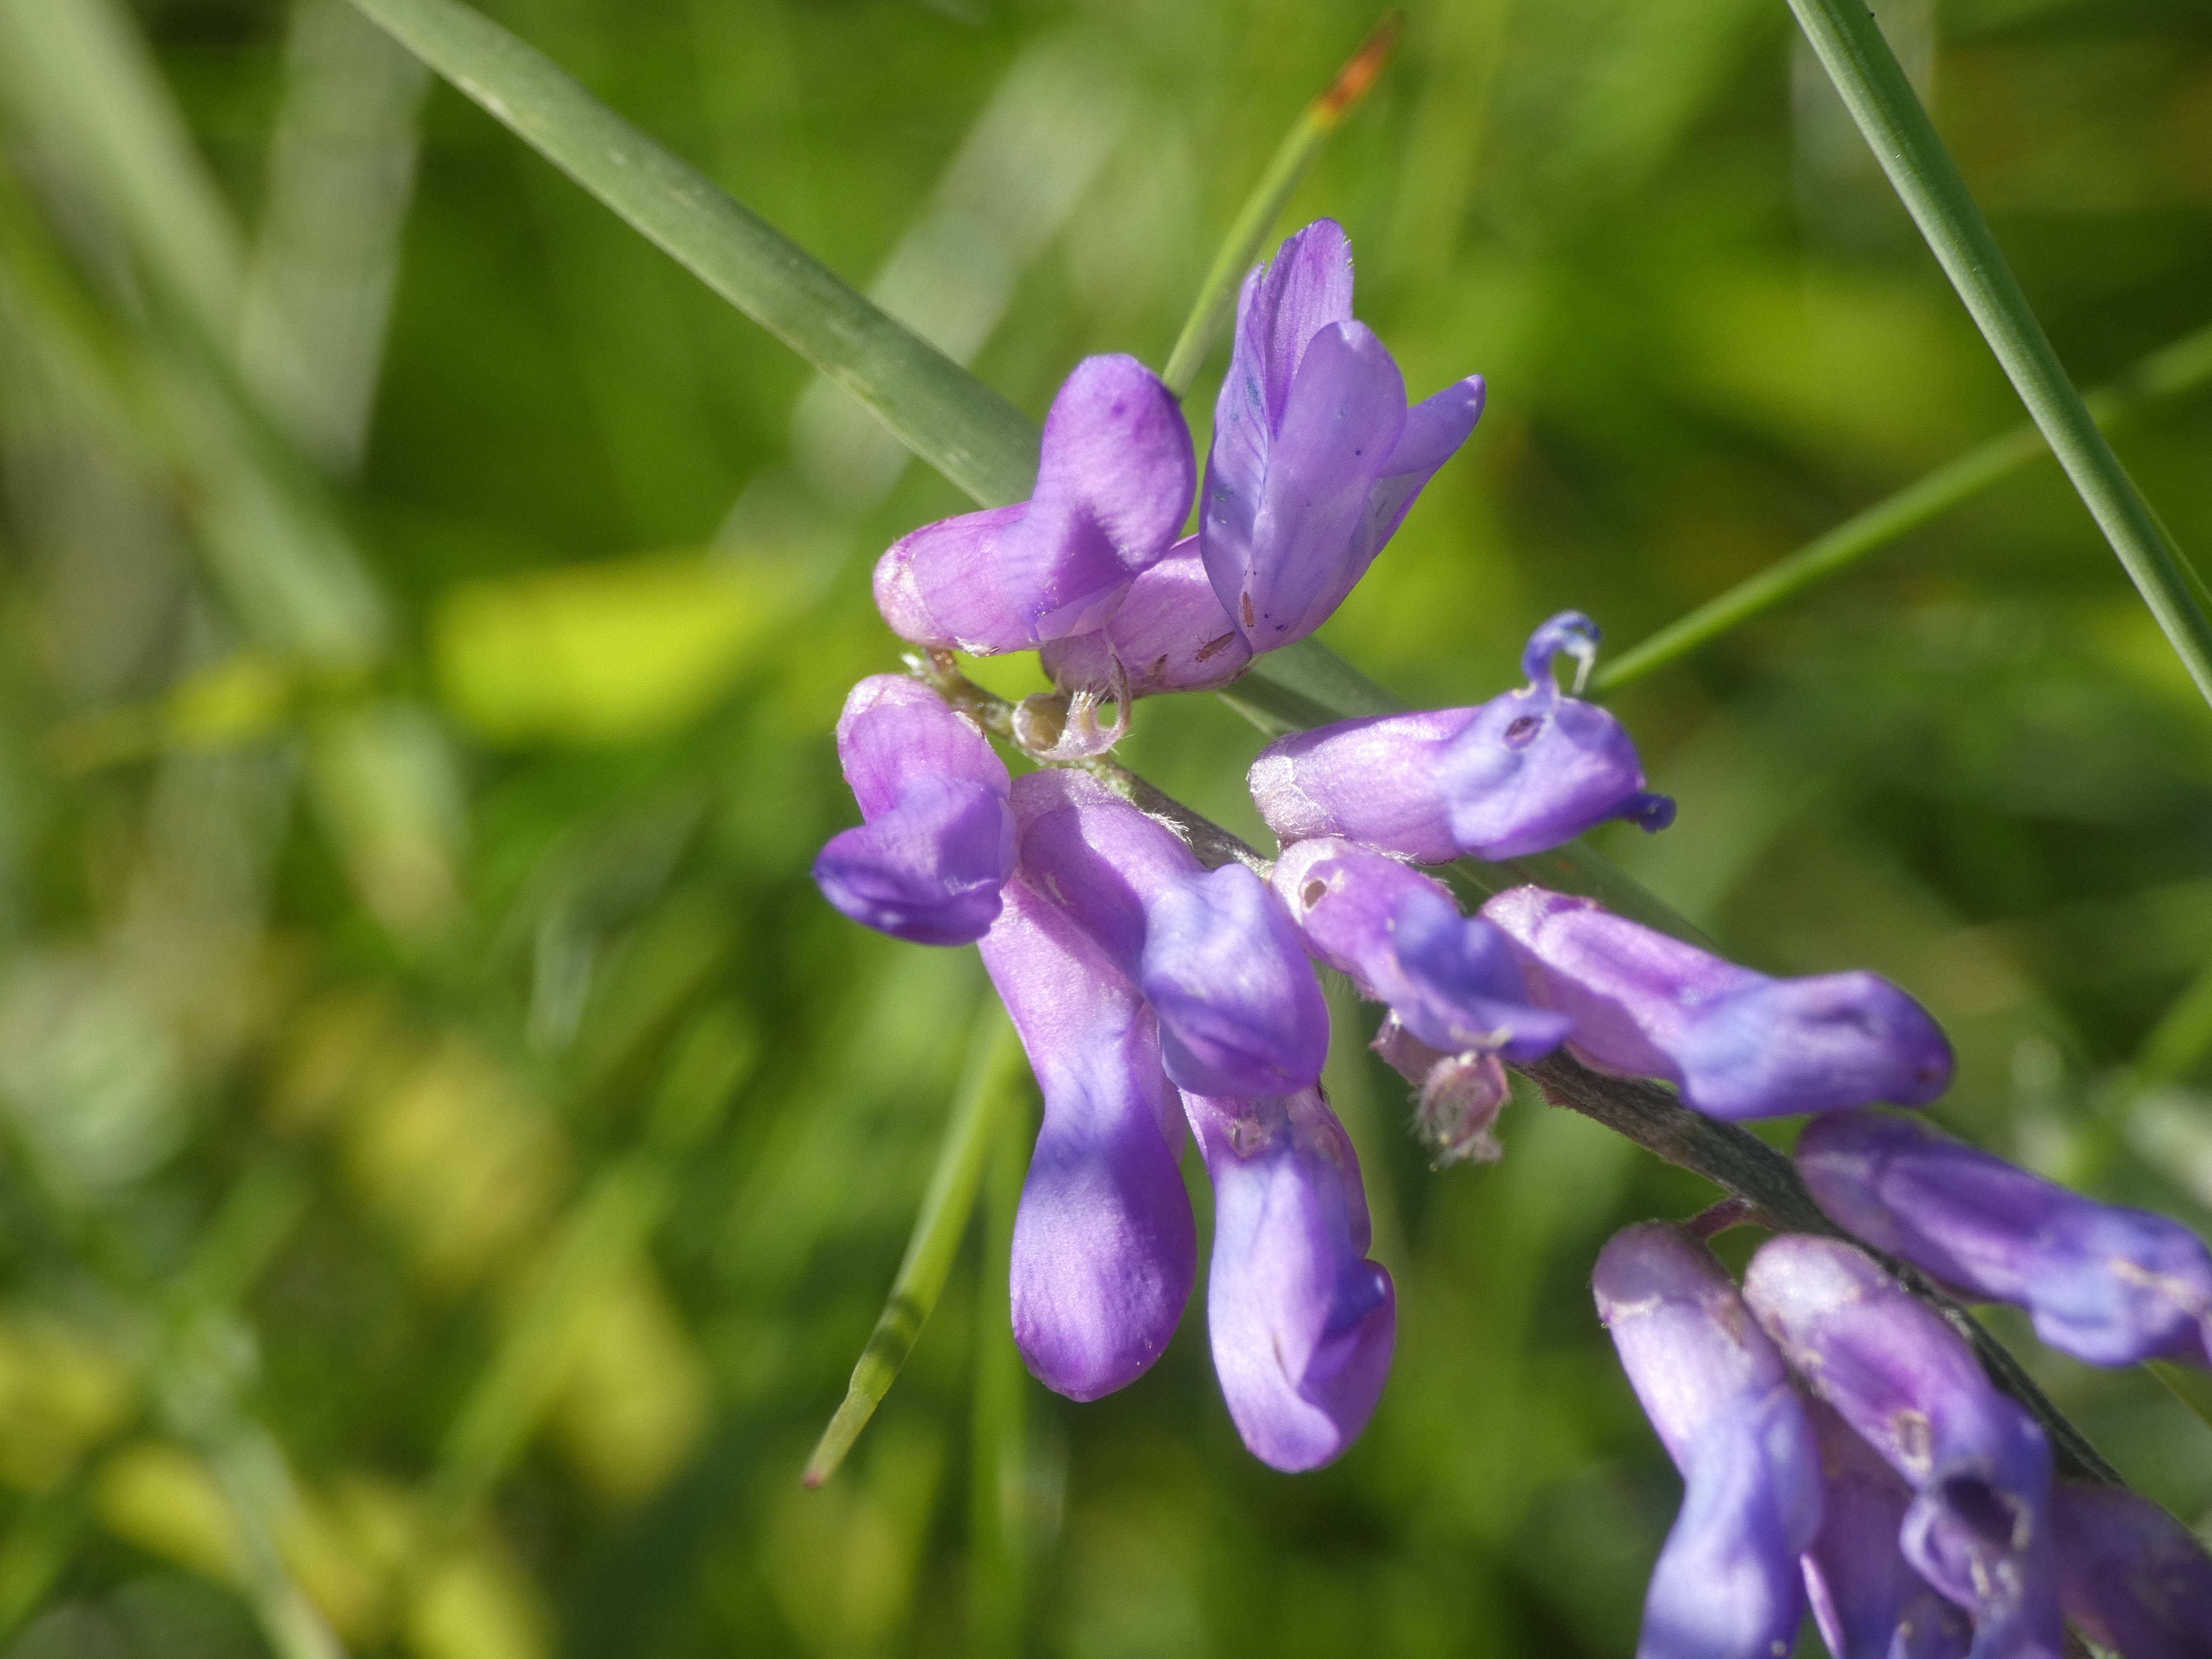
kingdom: Plantae
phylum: Tracheophyta
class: Magnoliopsida
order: Fabales
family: Fabaceae
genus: Vicia
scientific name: Vicia cracca
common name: Muse-vikke
